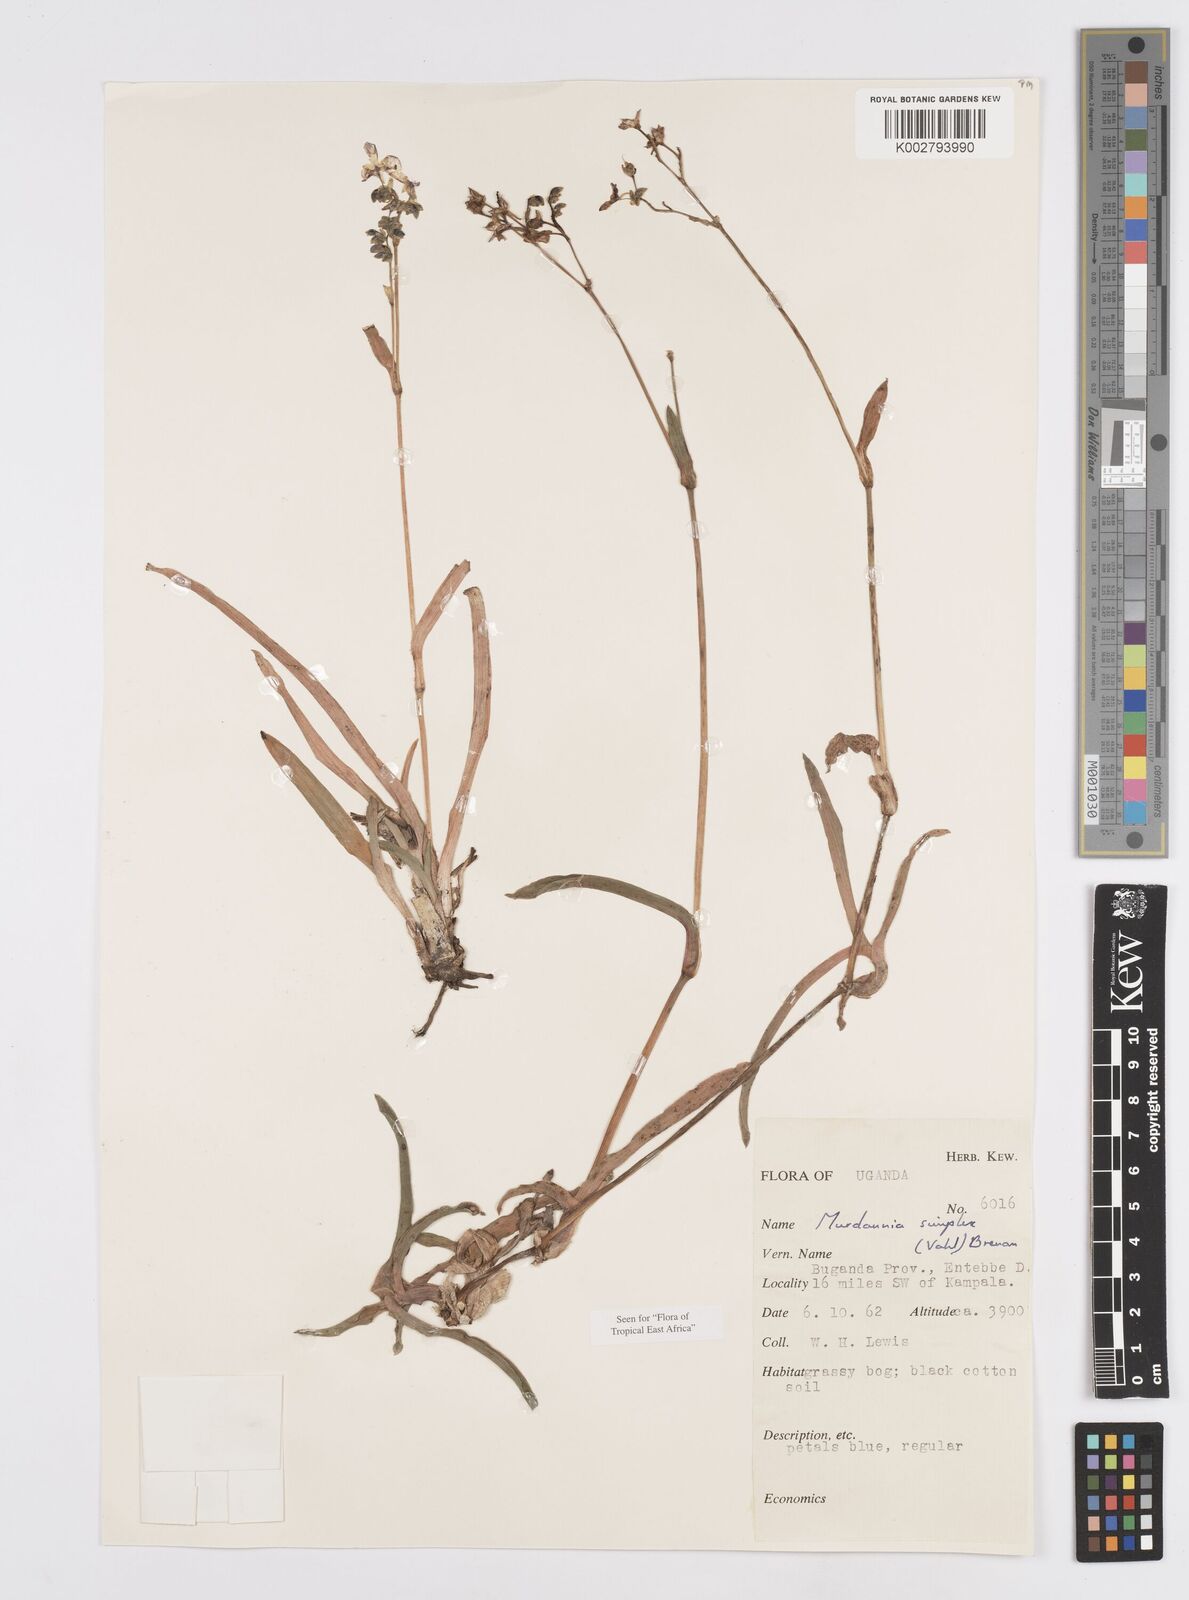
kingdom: Plantae
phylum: Tracheophyta
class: Liliopsida
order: Commelinales
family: Commelinaceae
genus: Murdannia
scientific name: Murdannia simplex
